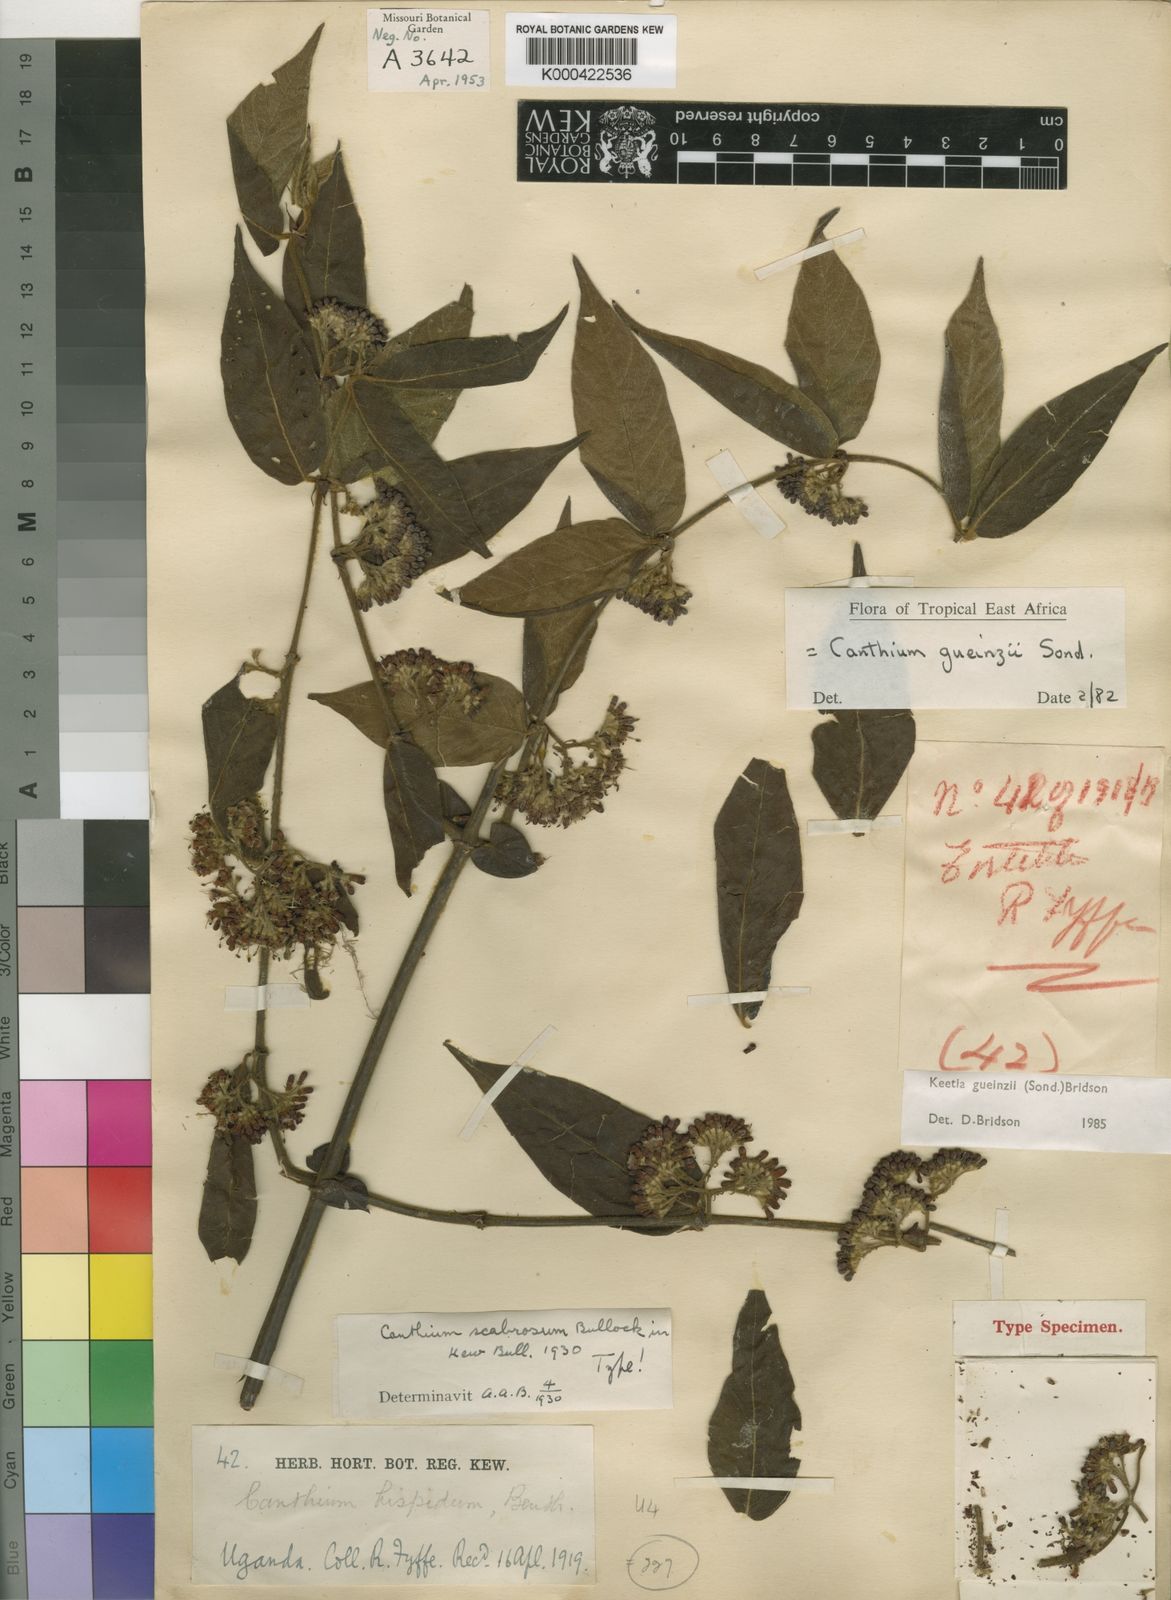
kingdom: Plantae
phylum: Tracheophyta
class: Magnoliopsida
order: Gentianales
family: Rubiaceae
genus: Keetia
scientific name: Keetia gueinzii
